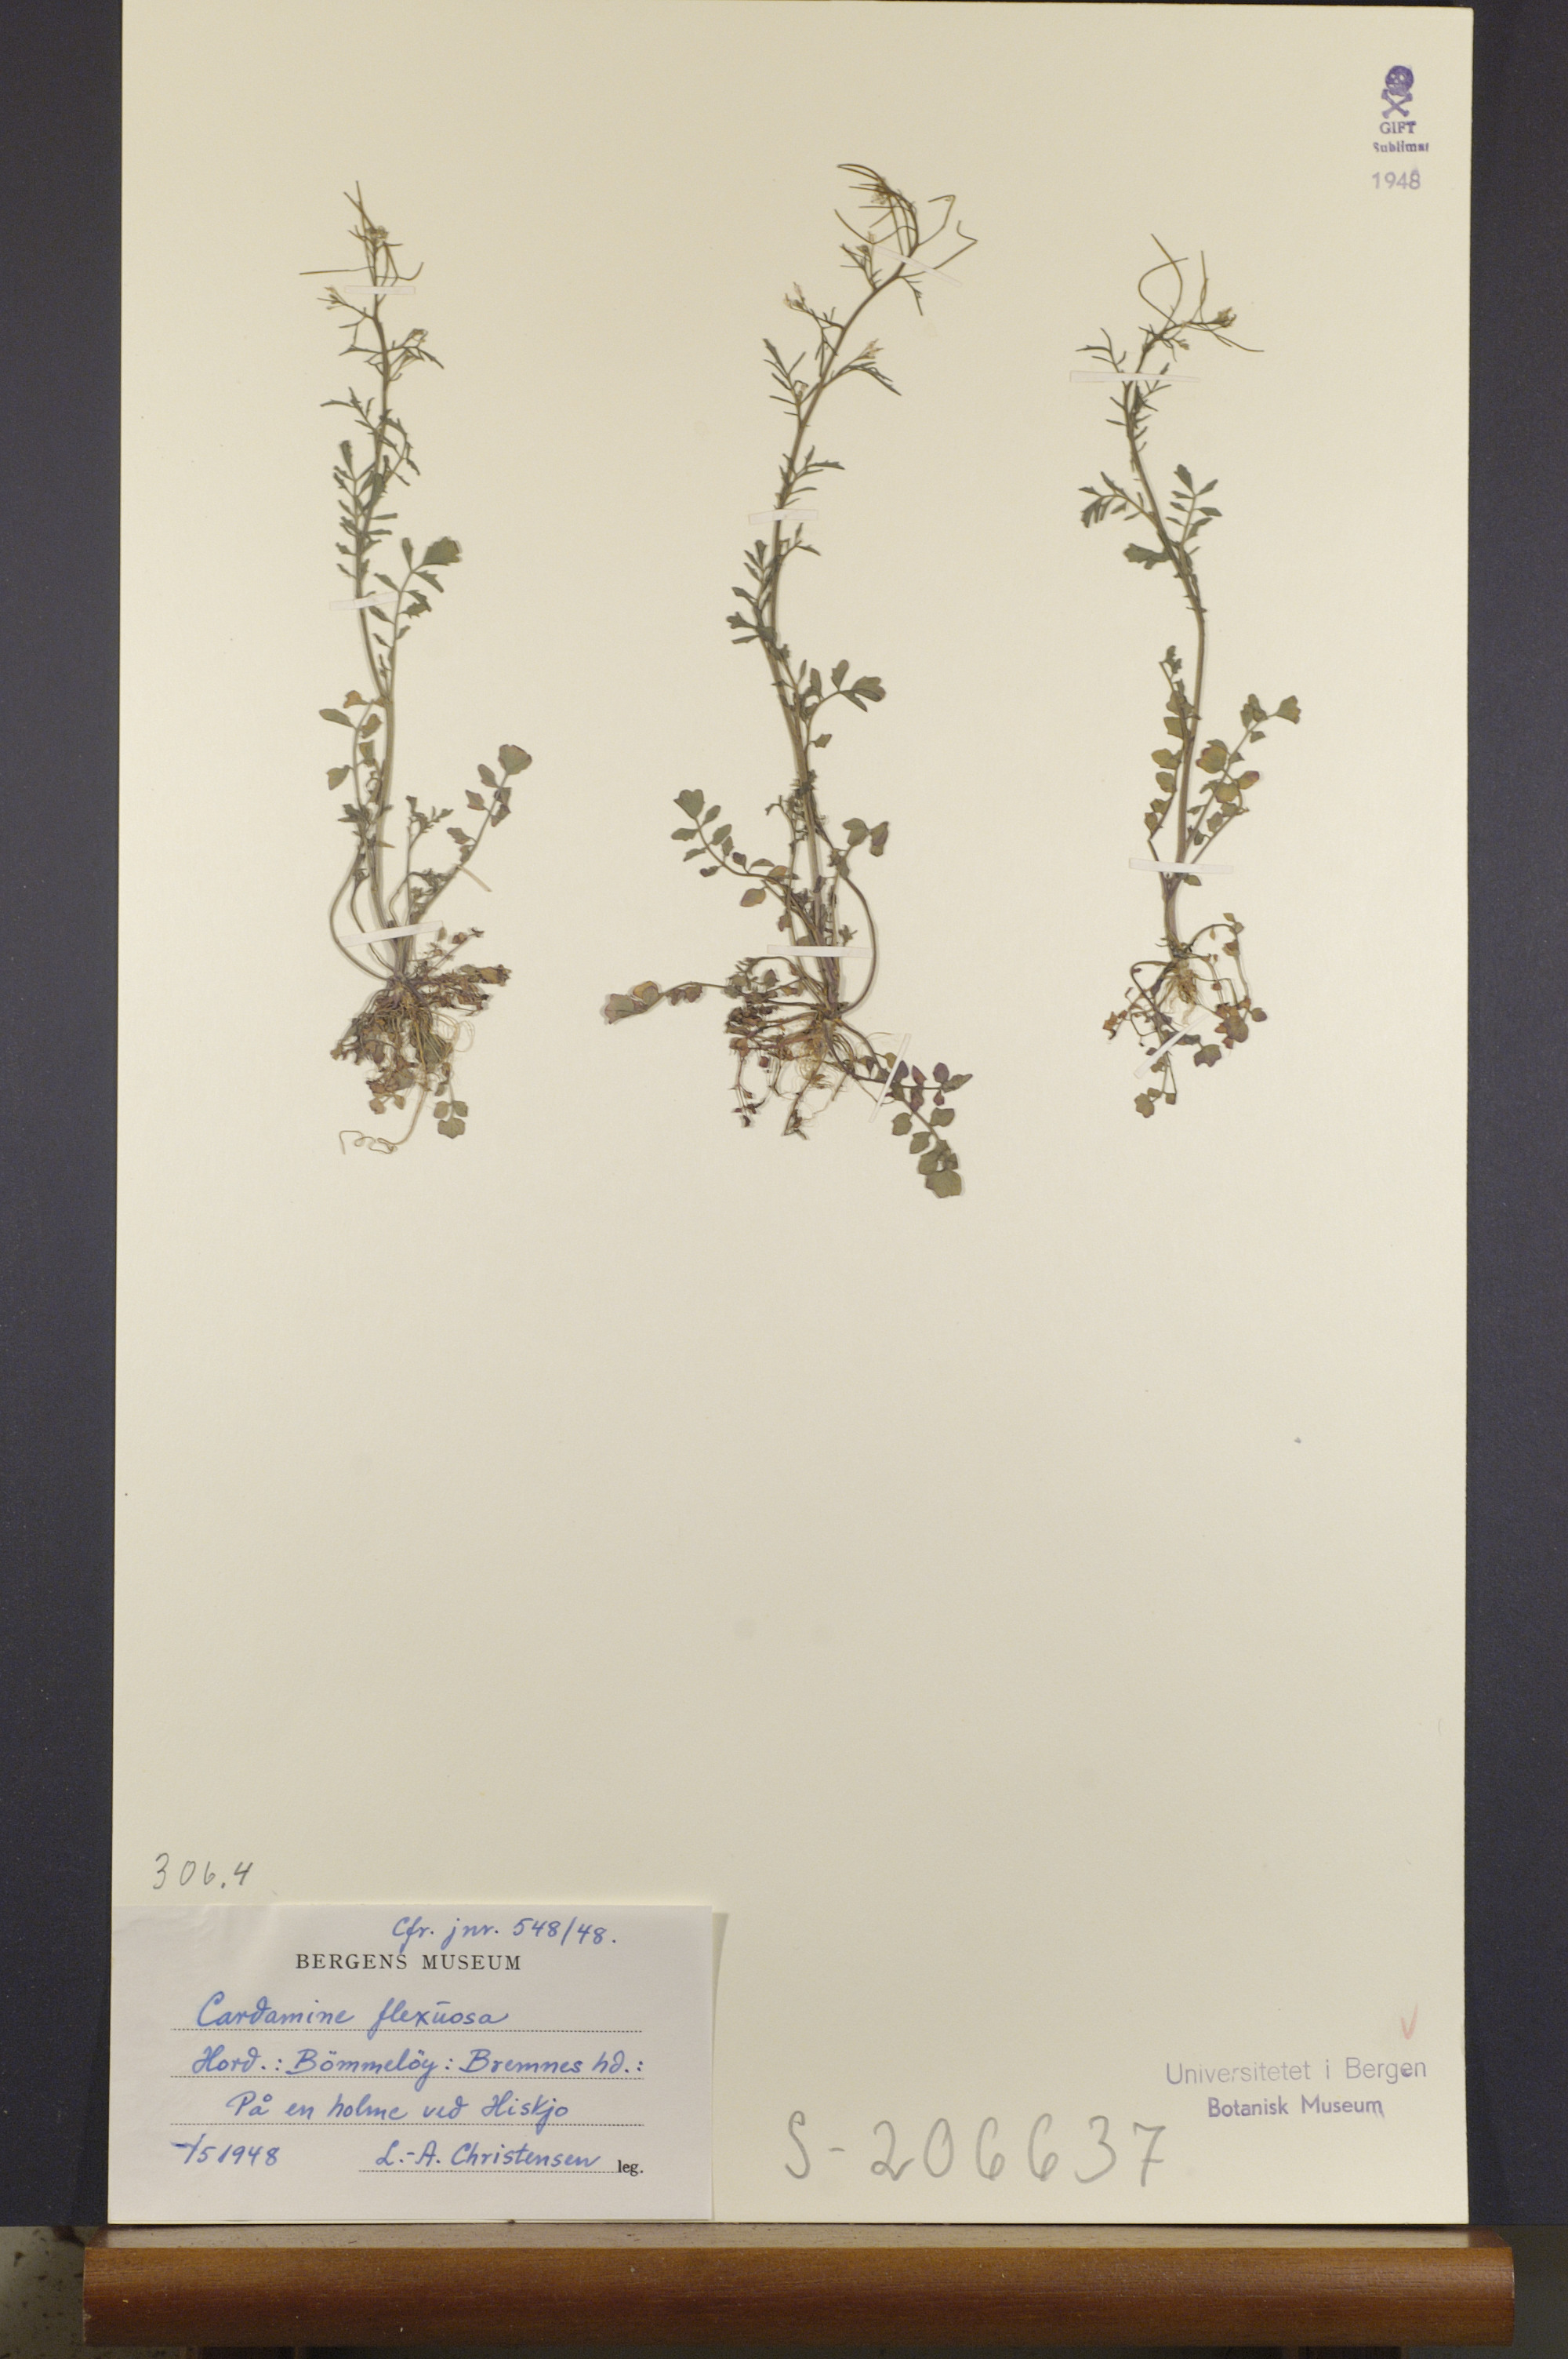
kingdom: Plantae
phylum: Tracheophyta
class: Magnoliopsida
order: Brassicales
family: Brassicaceae
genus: Cardamine
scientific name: Cardamine flexuosa
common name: Woodland bittercress
